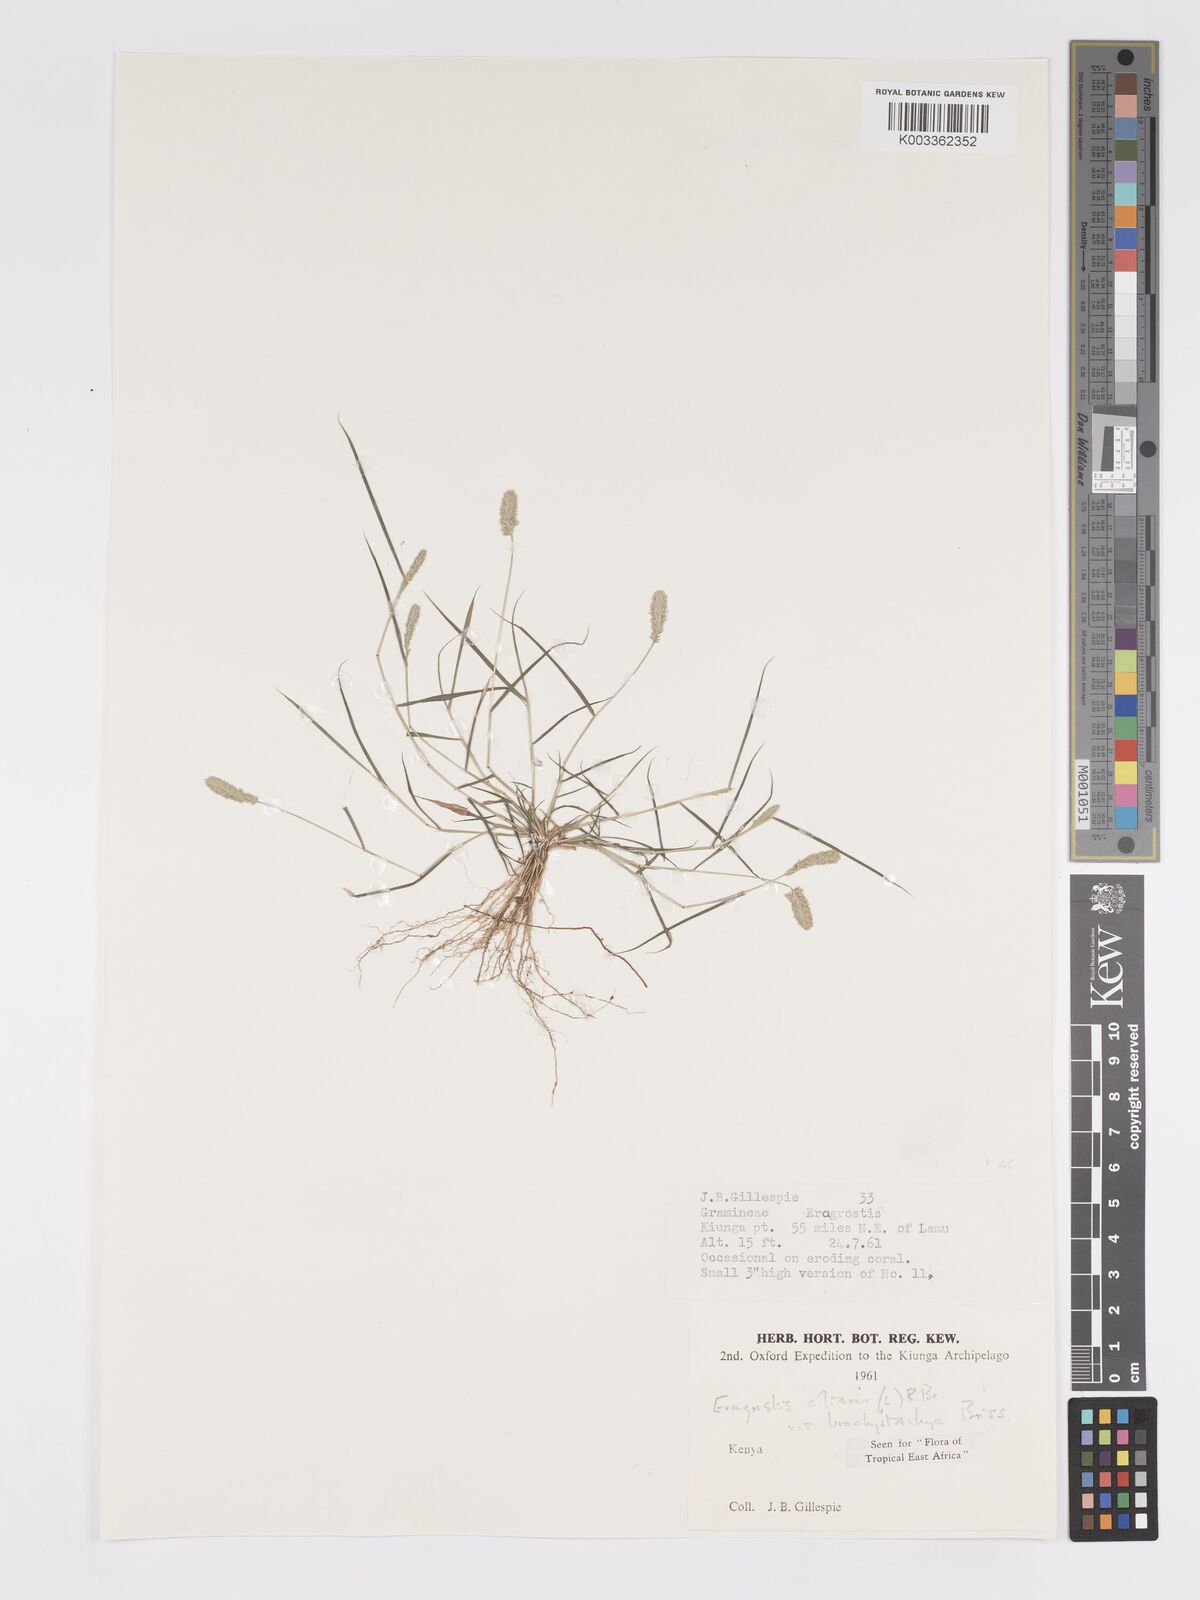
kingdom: Plantae
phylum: Tracheophyta
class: Liliopsida
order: Poales
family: Poaceae
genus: Eragrostis
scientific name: Eragrostis ciliaris
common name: Gophertail lovegrass
